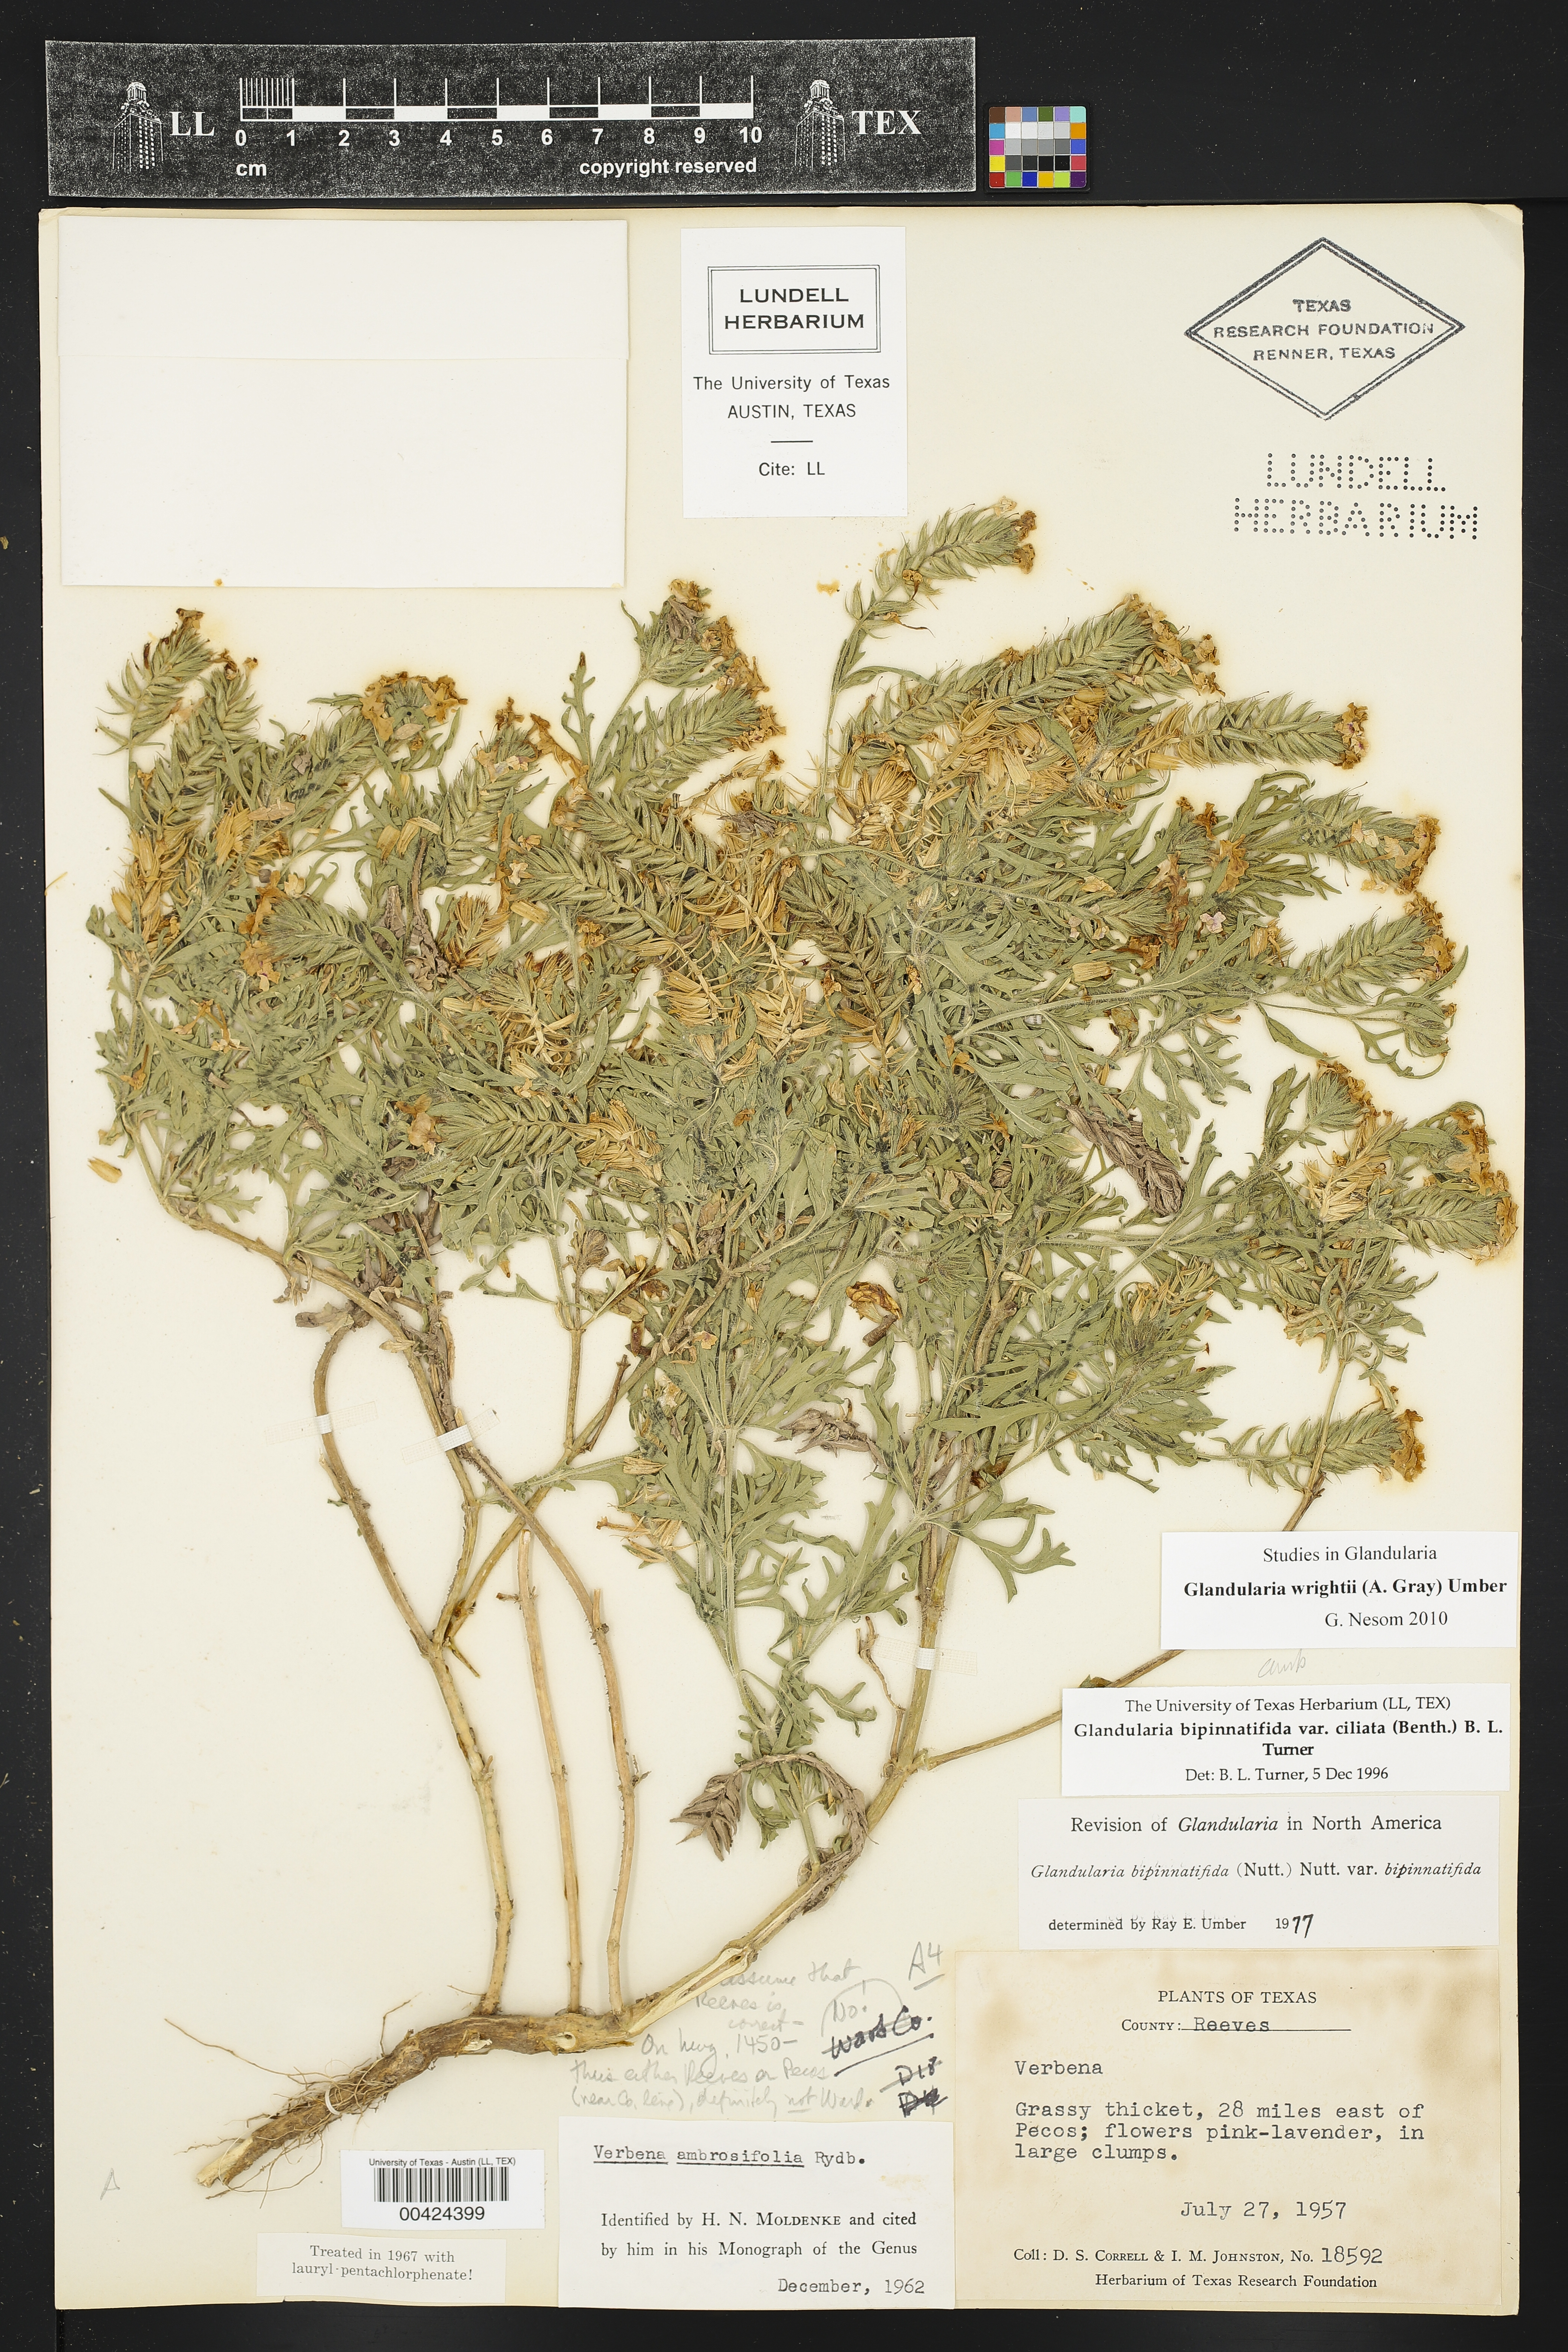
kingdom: Plantae
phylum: Tracheophyta
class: Magnoliopsida
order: Lamiales
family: Verbenaceae
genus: Verbena
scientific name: Verbena bipinnatifida
